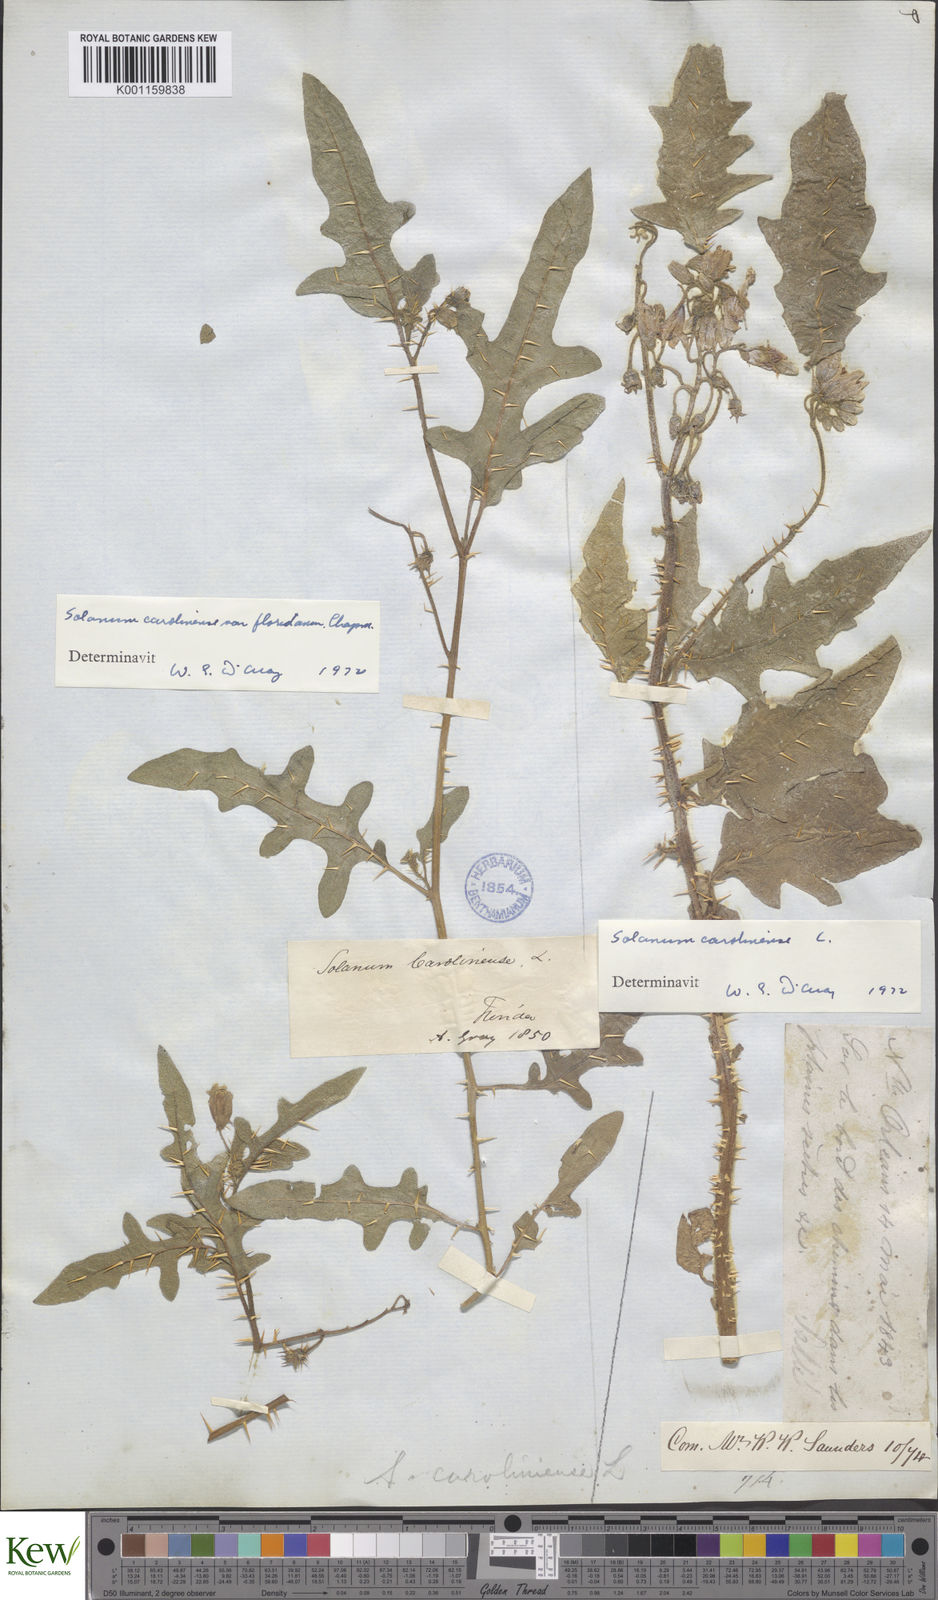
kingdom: Plantae
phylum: Tracheophyta
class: Magnoliopsida
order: Solanales
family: Solanaceae
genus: Solanum
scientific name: Solanum carolinense
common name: Horse-nettle
